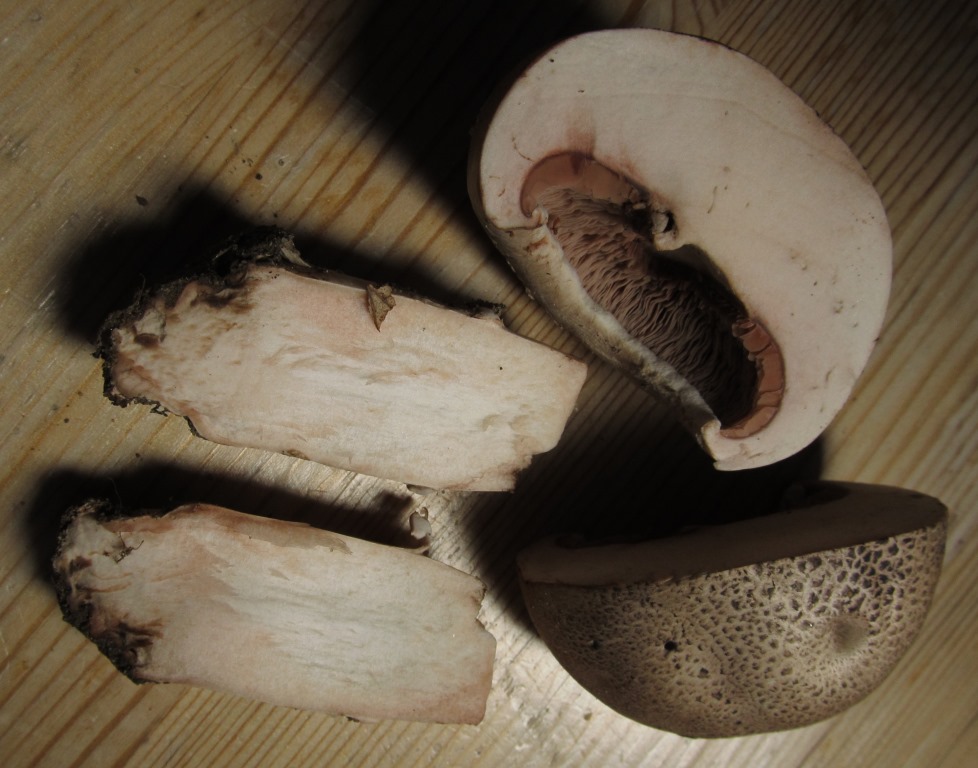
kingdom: Fungi
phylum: Basidiomycota
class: Agaricomycetes
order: Agaricales
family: Agaricaceae
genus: Agaricus
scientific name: Agaricus subfloccosus
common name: randskællet champignon
